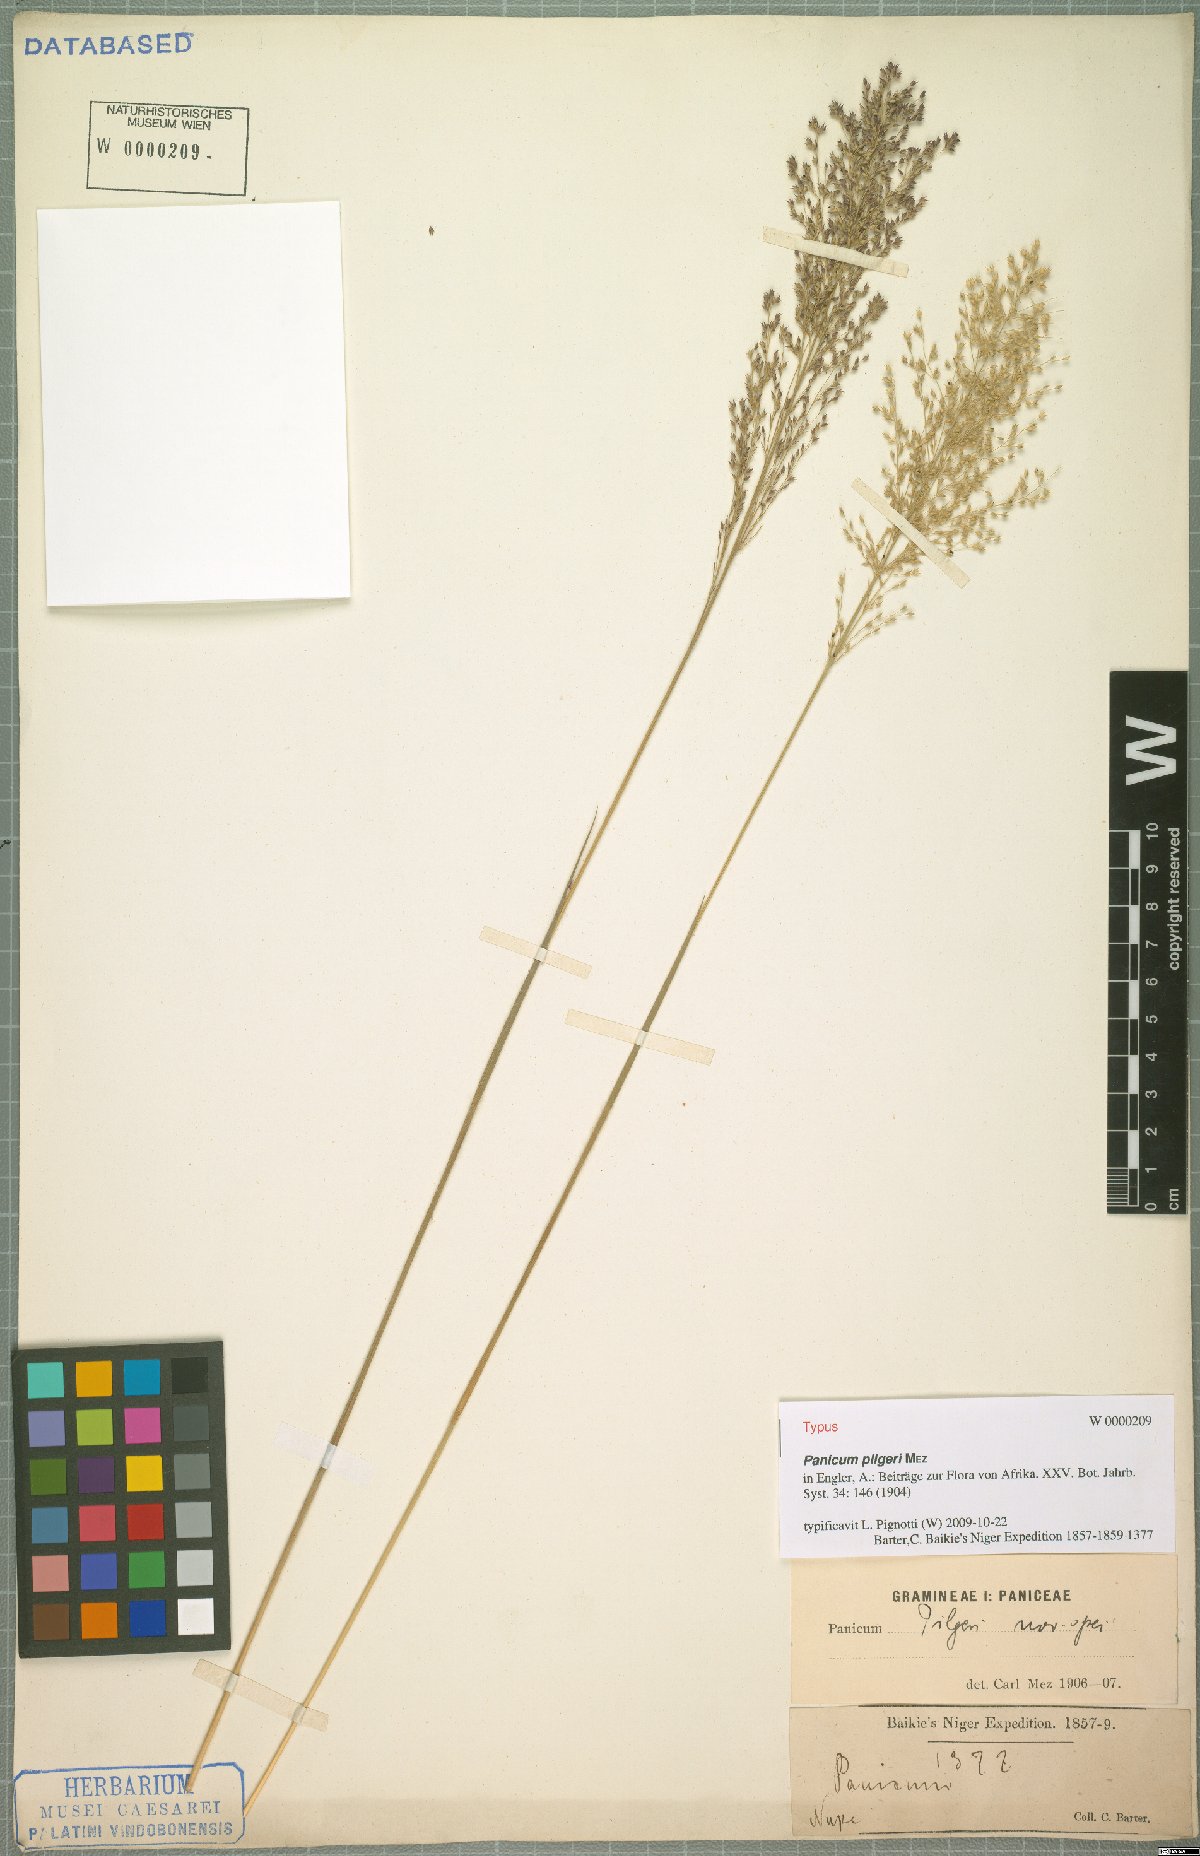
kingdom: Plantae
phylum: Tracheophyta
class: Liliopsida
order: Poales
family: Poaceae
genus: Panicum
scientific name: Panicum pilgeri
